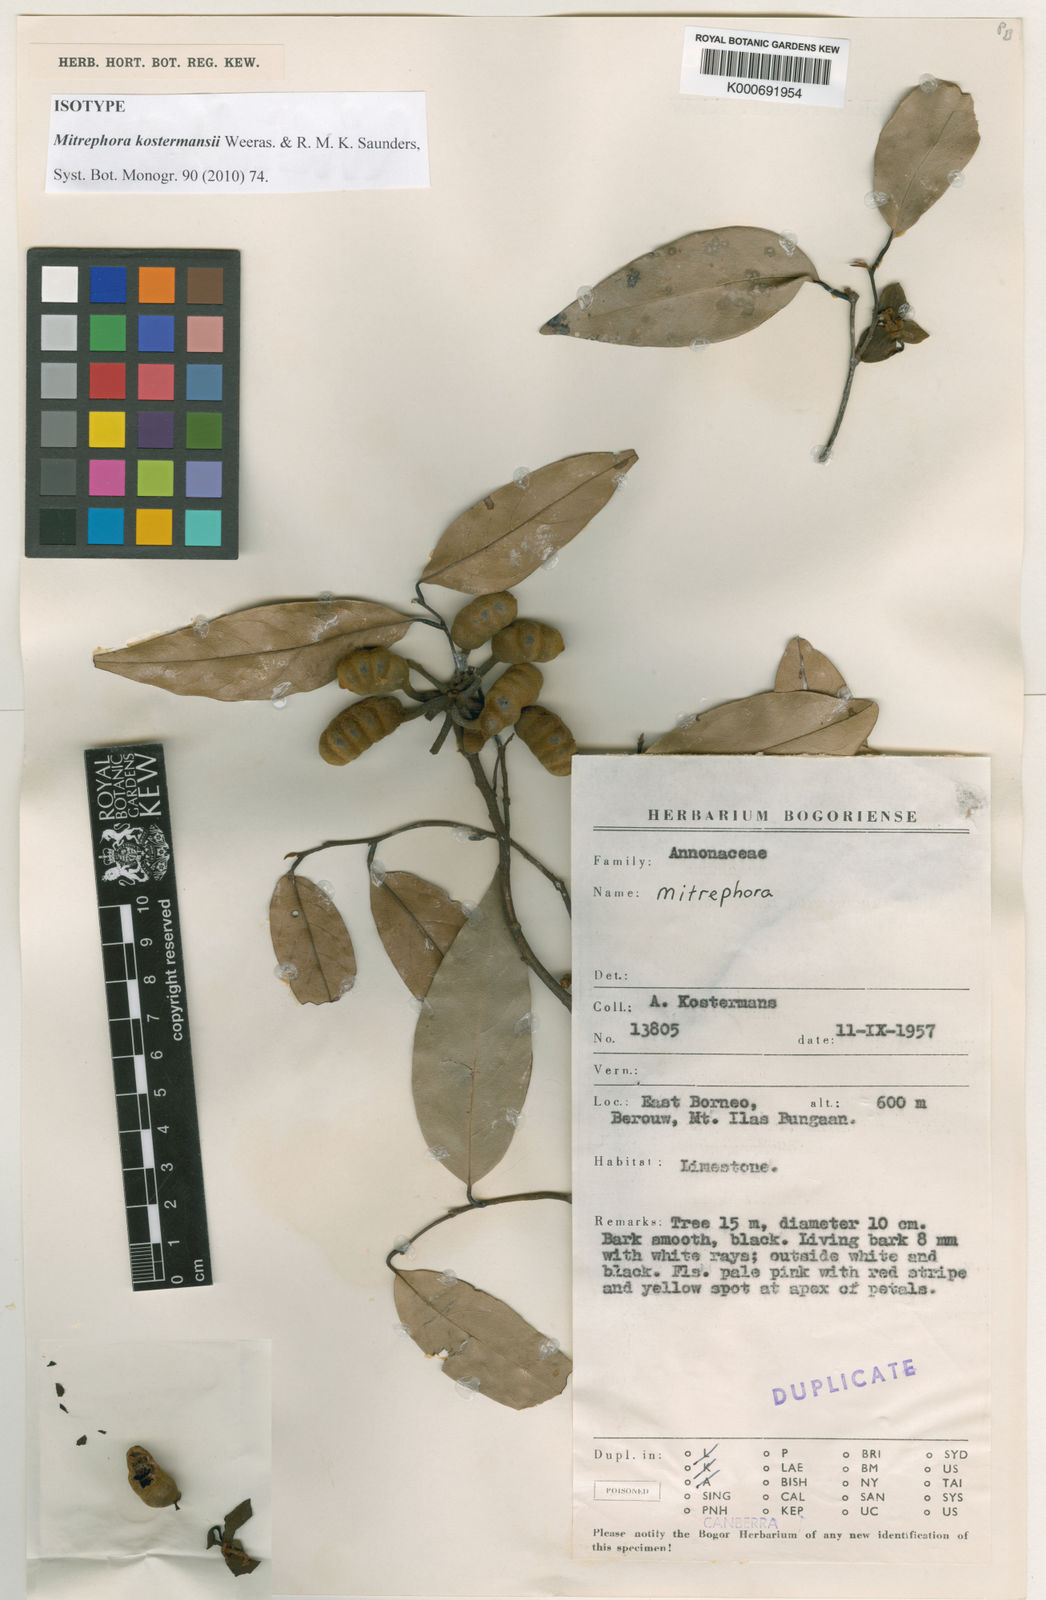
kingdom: Plantae
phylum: Tracheophyta
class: Magnoliopsida
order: Magnoliales
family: Annonaceae
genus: Mitrephora
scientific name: Mitrephora kostermansii
